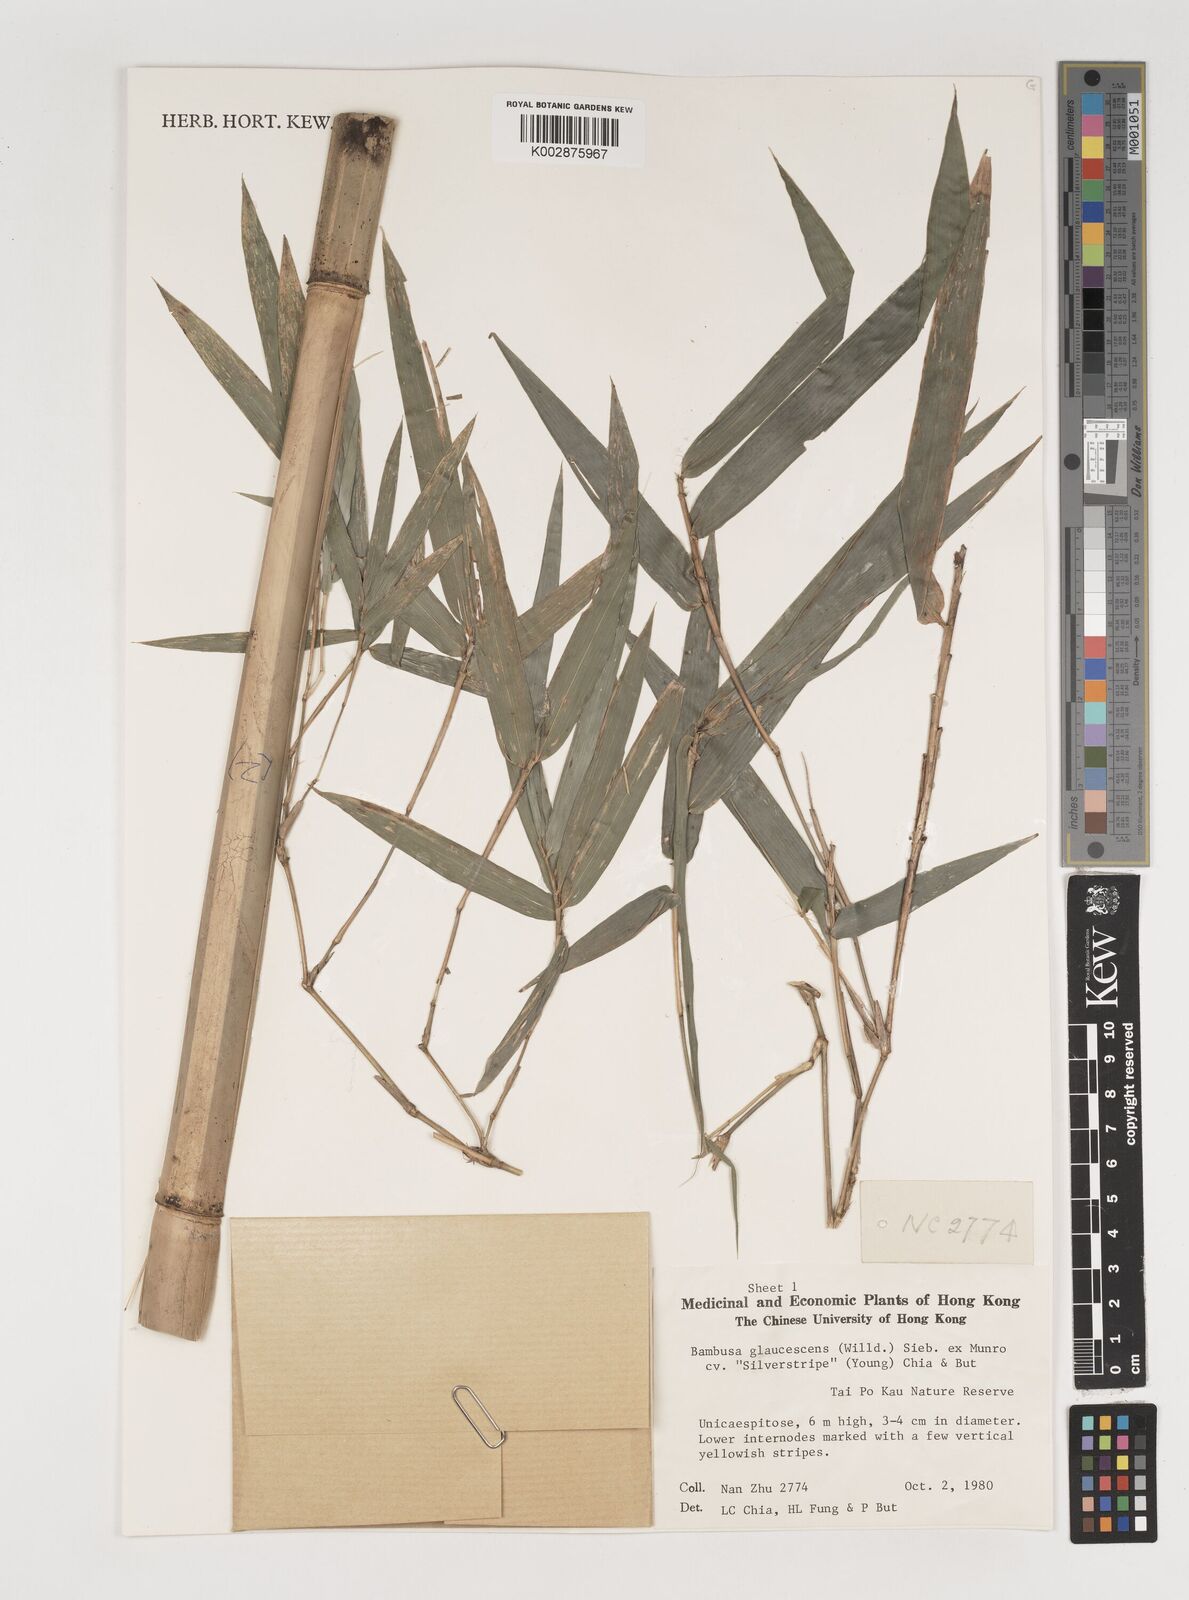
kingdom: Plantae
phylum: Tracheophyta
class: Liliopsida
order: Poales
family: Poaceae
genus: Bambusa
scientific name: Bambusa multiplex
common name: Hedge bamboo
